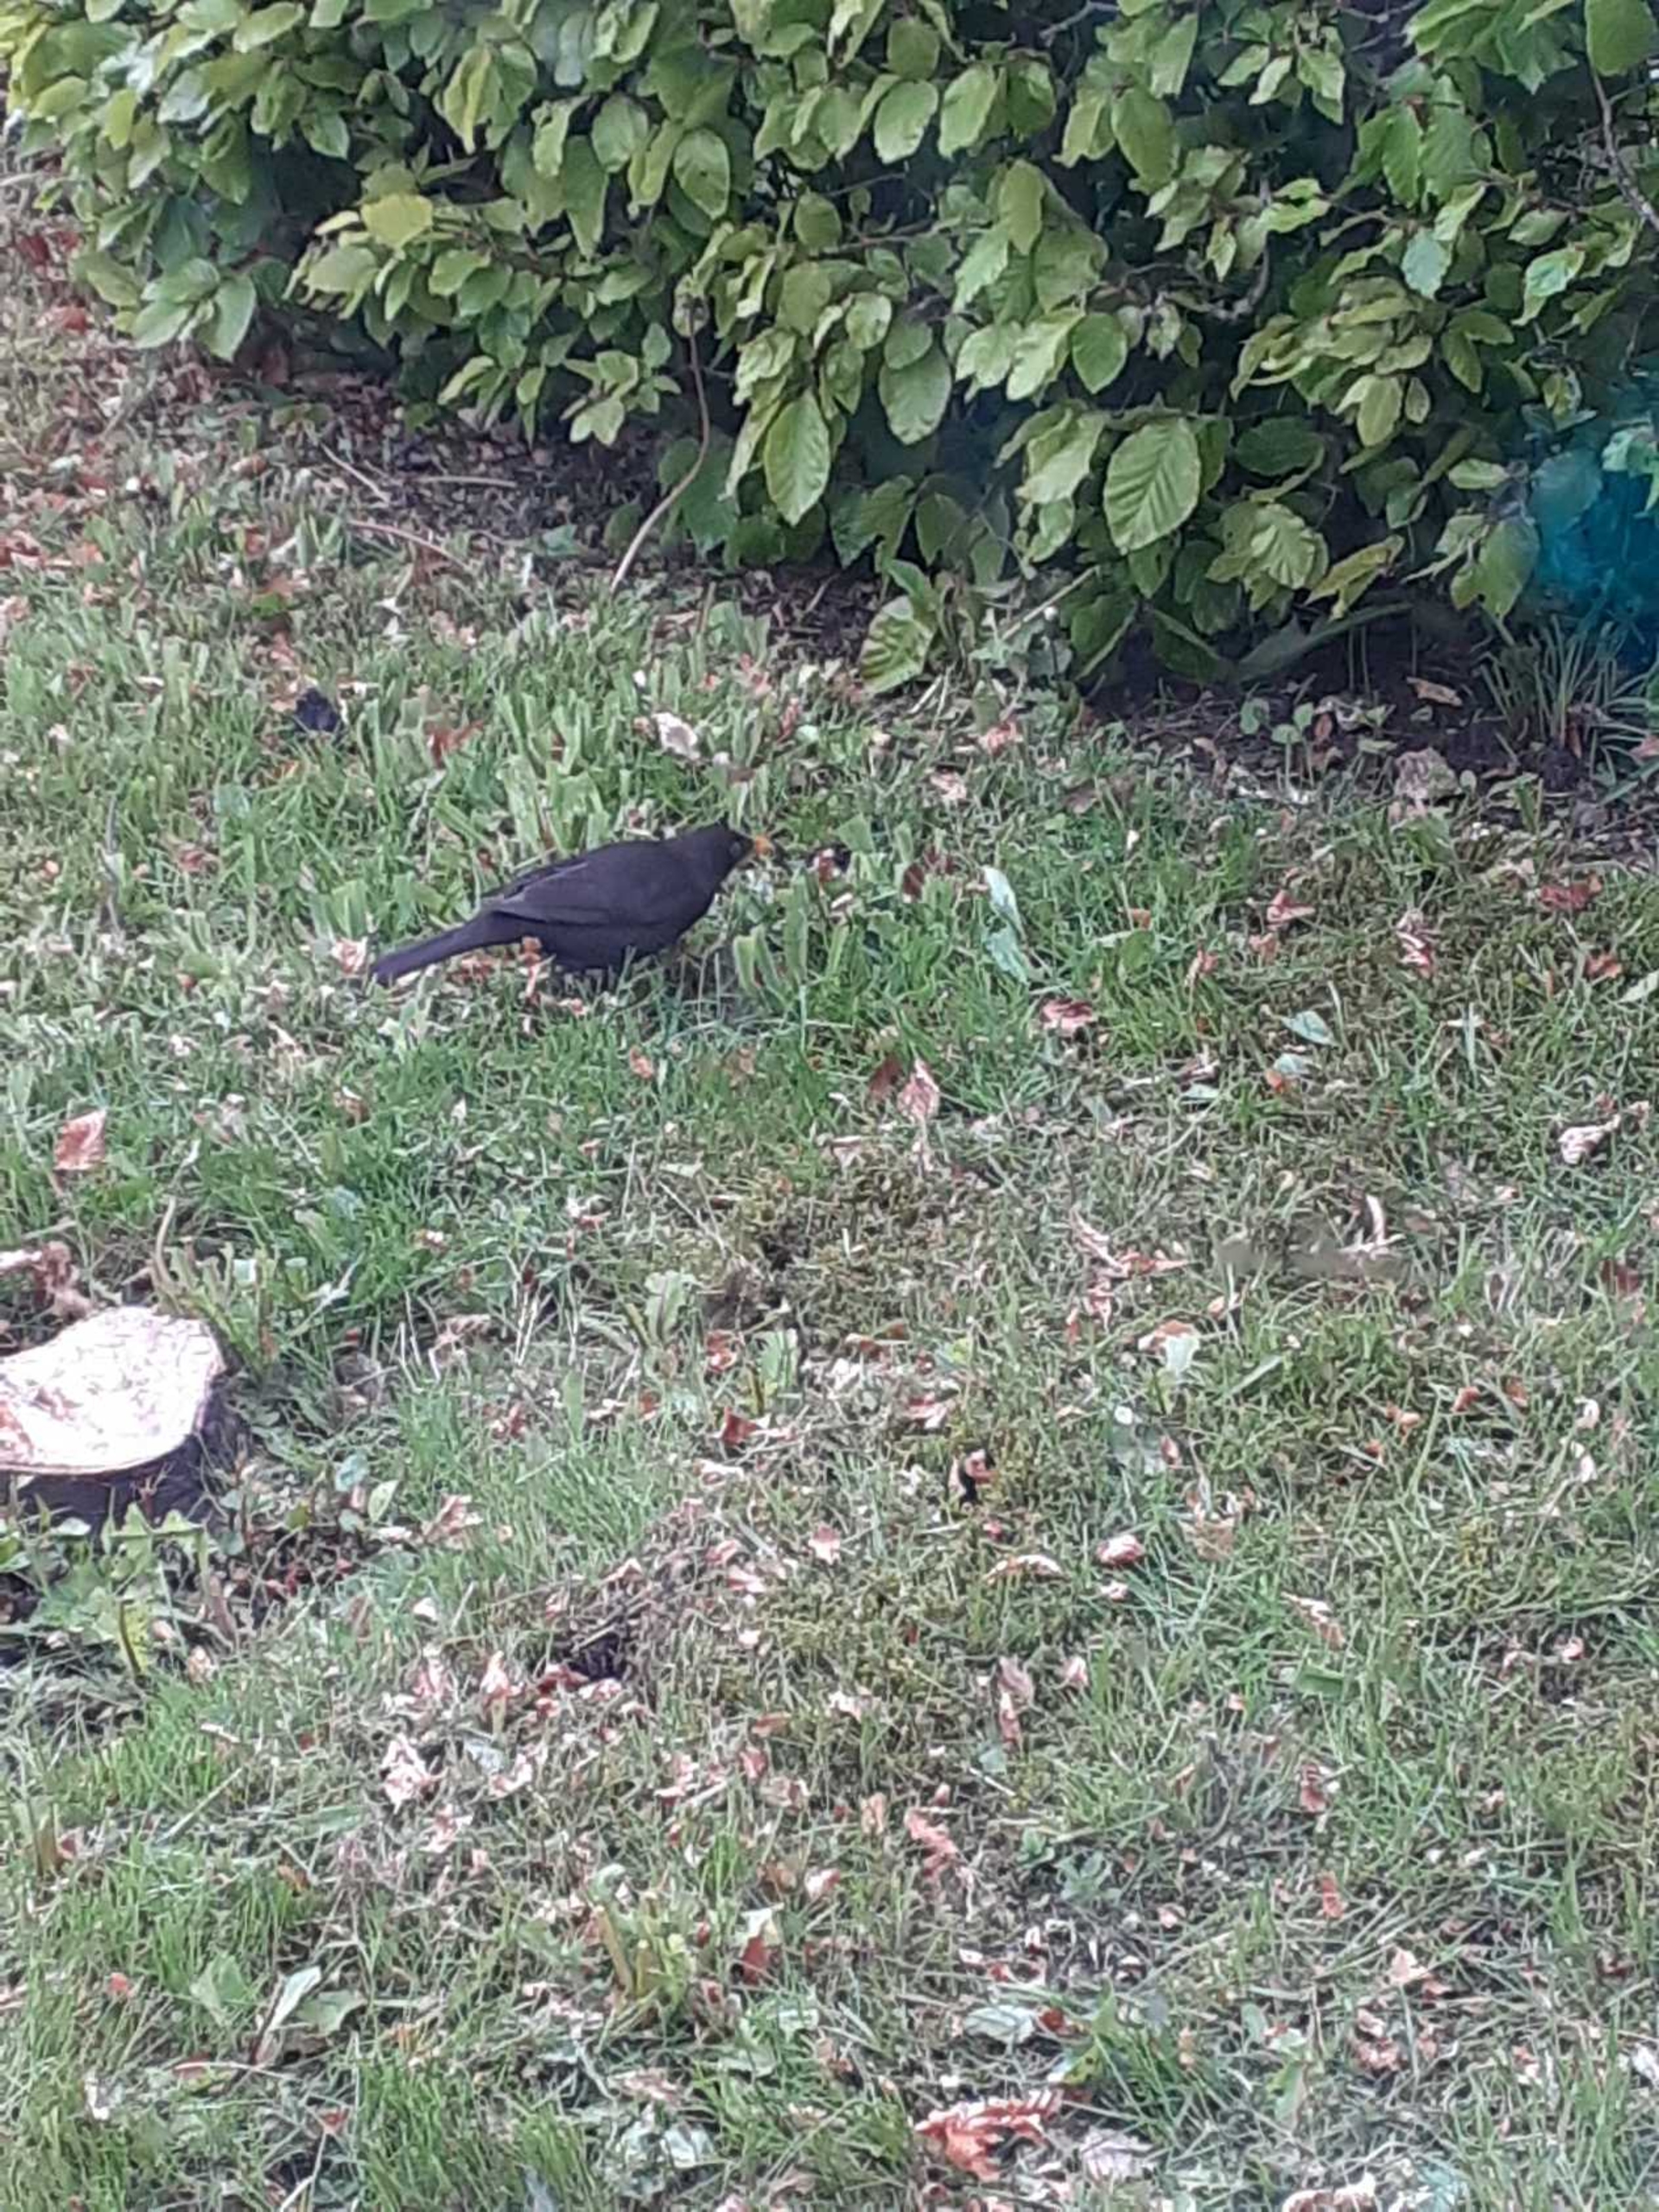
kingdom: Animalia
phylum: Chordata
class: Aves
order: Passeriformes
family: Turdidae
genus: Turdus
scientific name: Turdus merula
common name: Solsort
